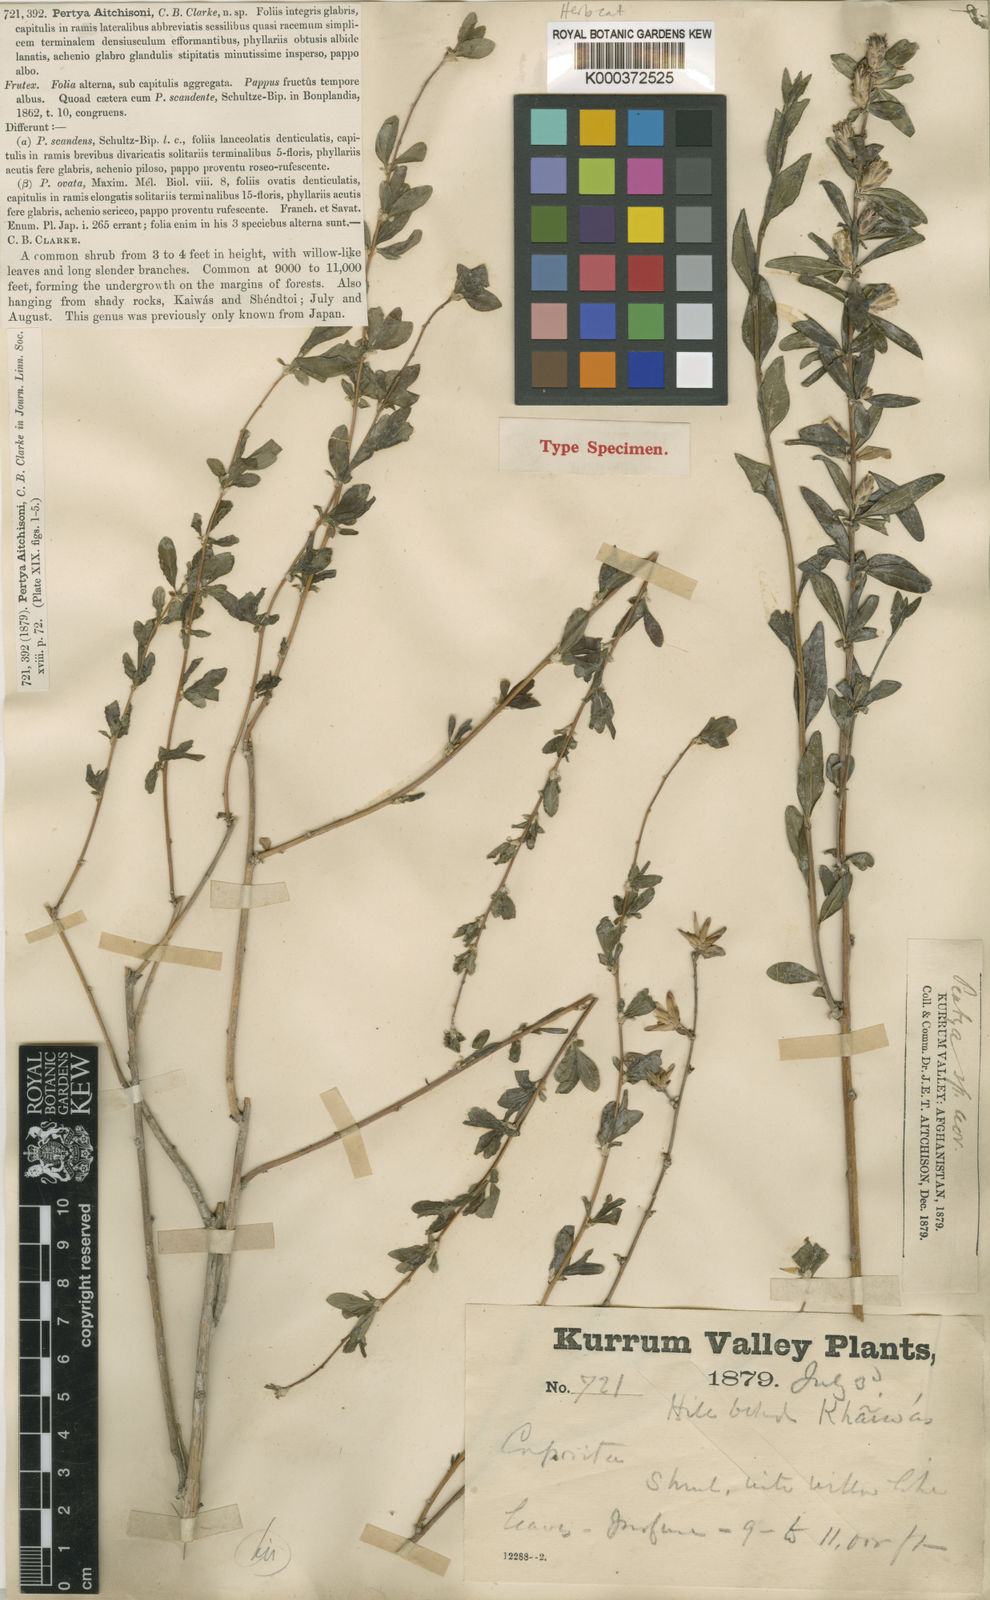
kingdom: Plantae
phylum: Tracheophyta
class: Magnoliopsida
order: Asterales
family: Asteraceae
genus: Pertya
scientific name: Pertya aitchisonii
